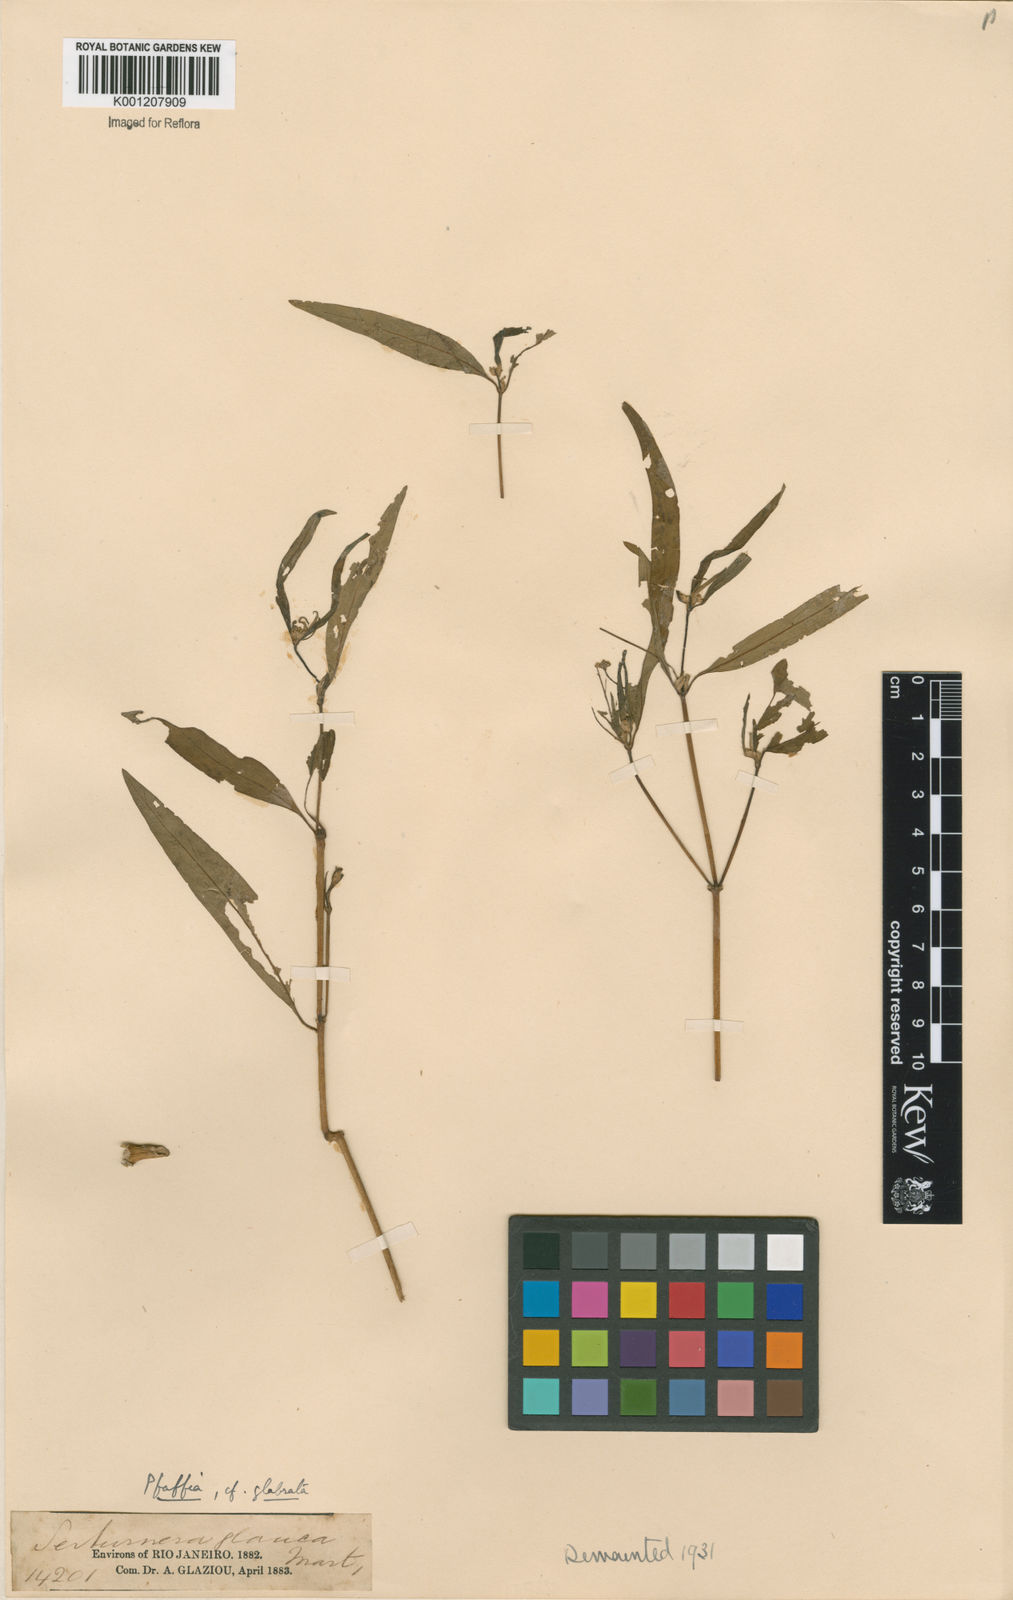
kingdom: Plantae
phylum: Tracheophyta
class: Magnoliopsida
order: Caryophyllales
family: Amaranthaceae
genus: Pfaffia
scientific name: Pfaffia glabrata
